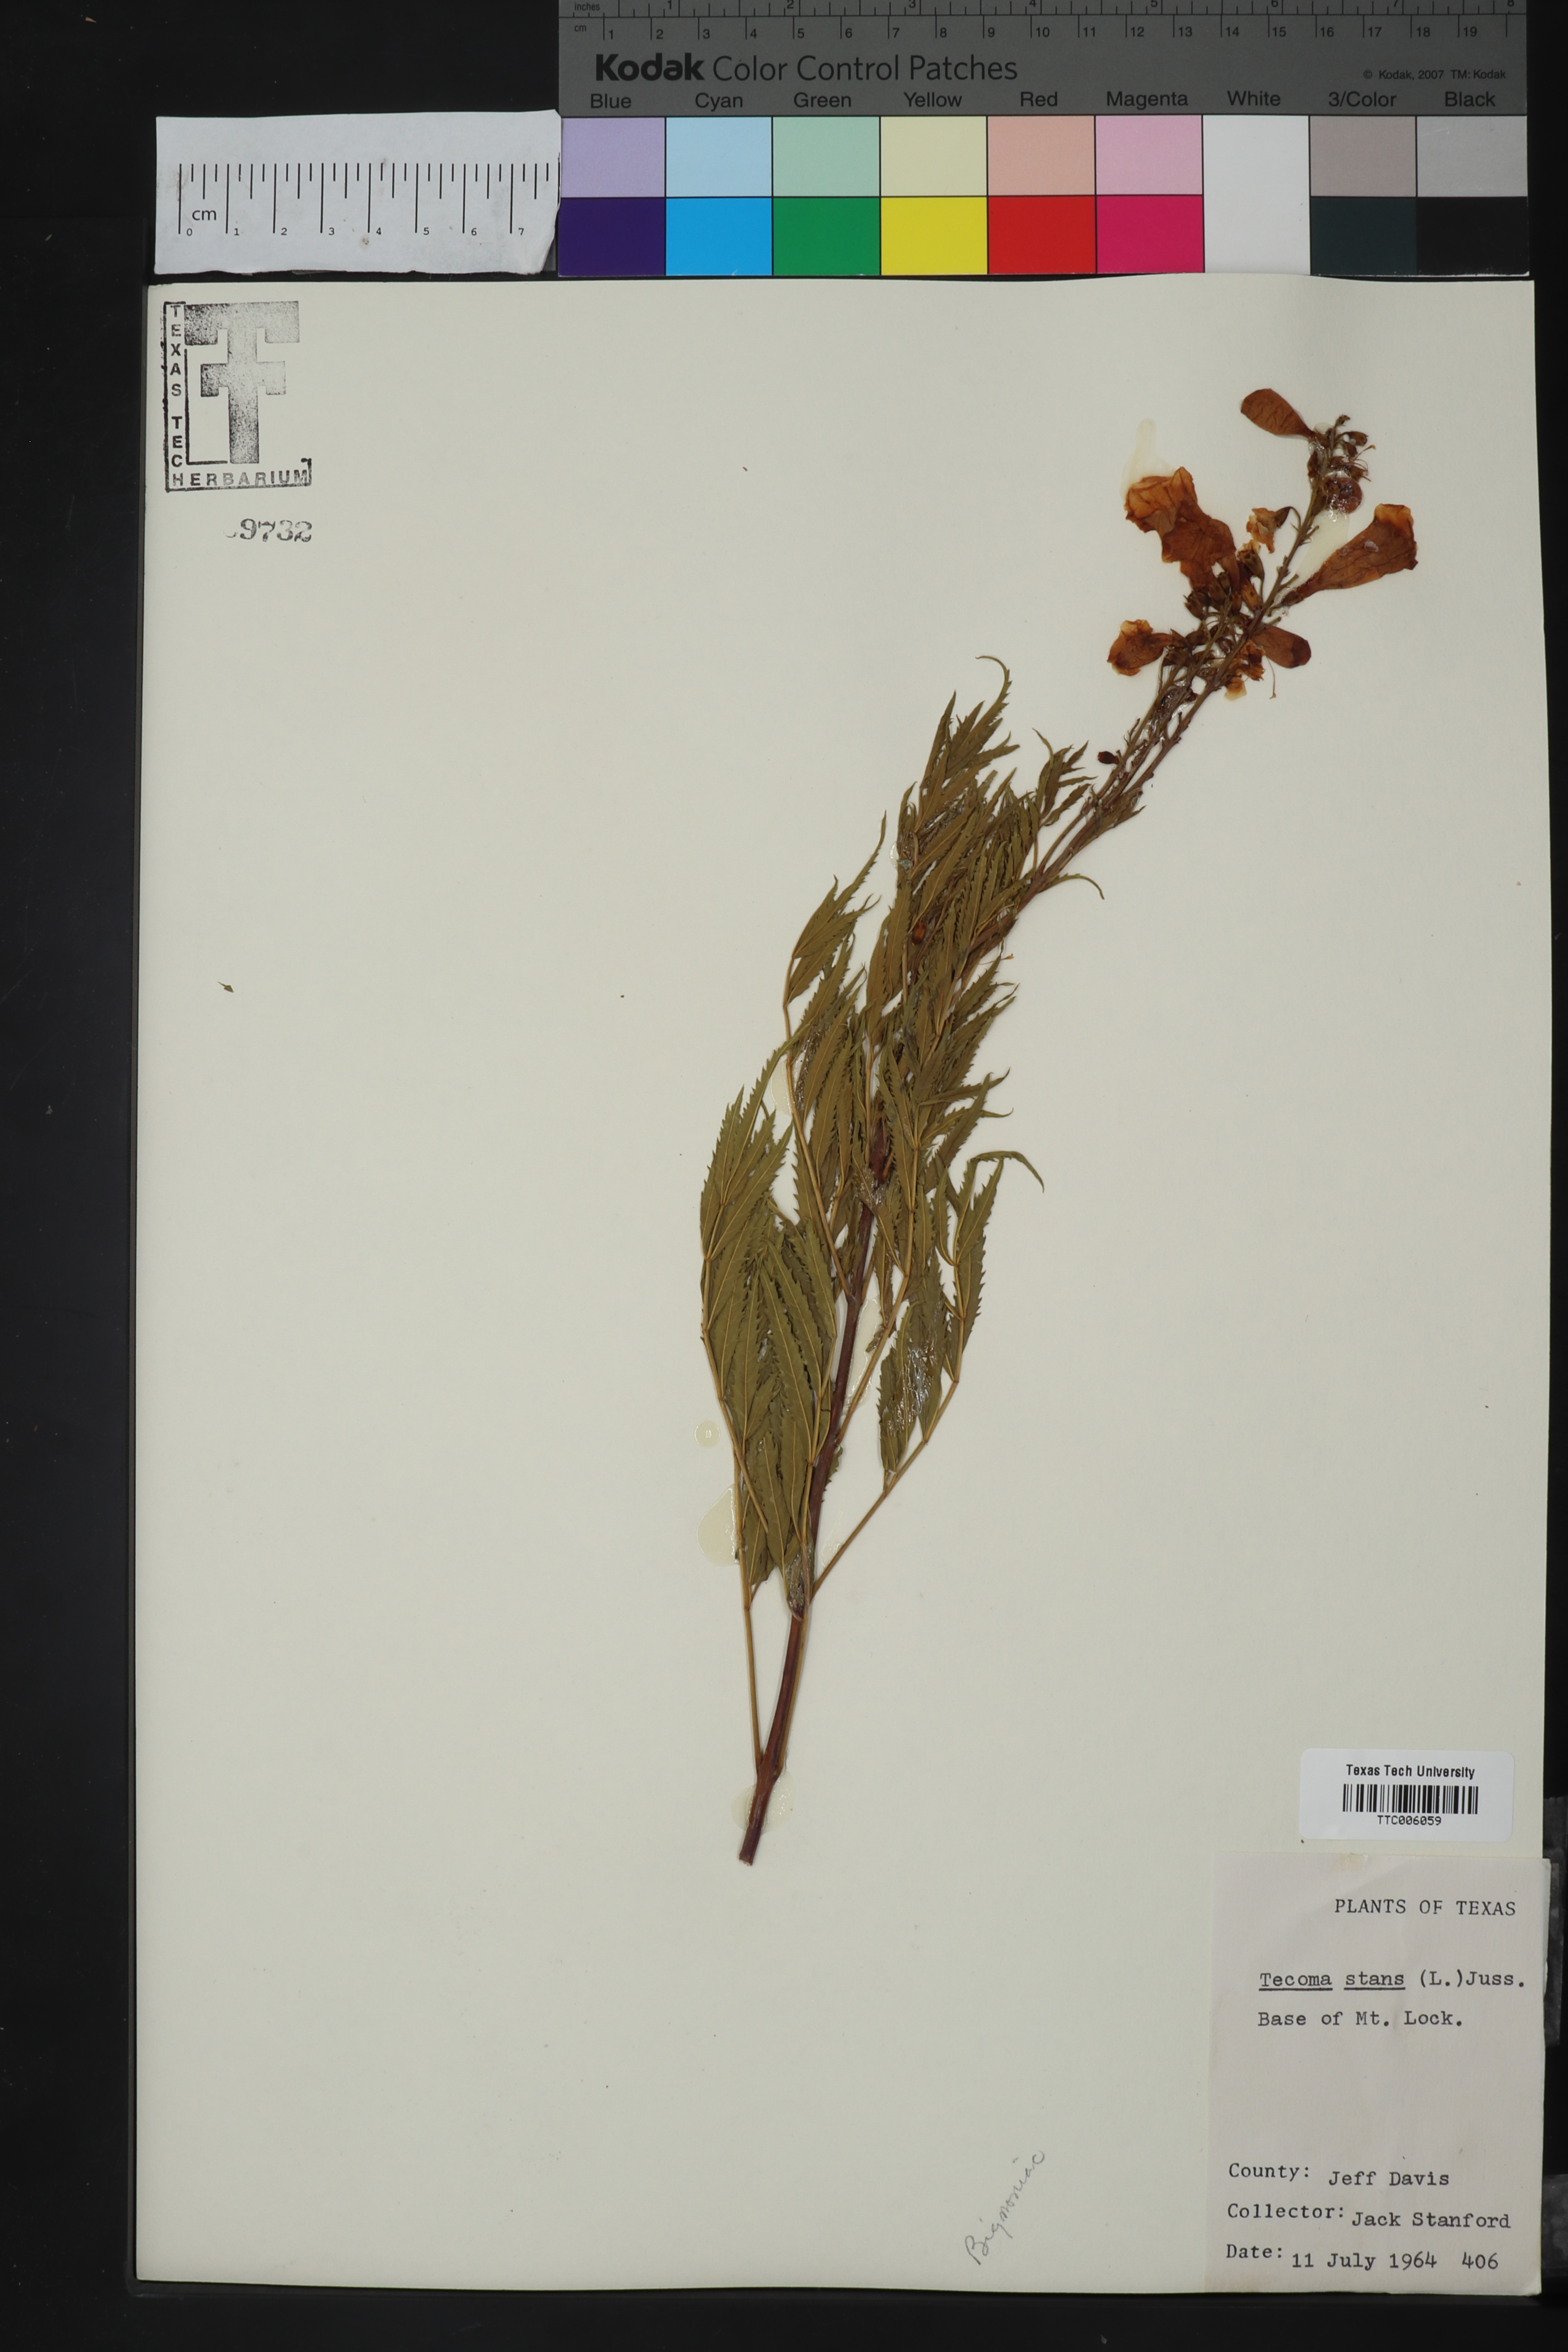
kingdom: Plantae
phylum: Tracheophyta
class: Magnoliopsida
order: Lamiales
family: Bignoniaceae
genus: Tecoma
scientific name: Tecoma stans
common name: Yellow trumpetbush
